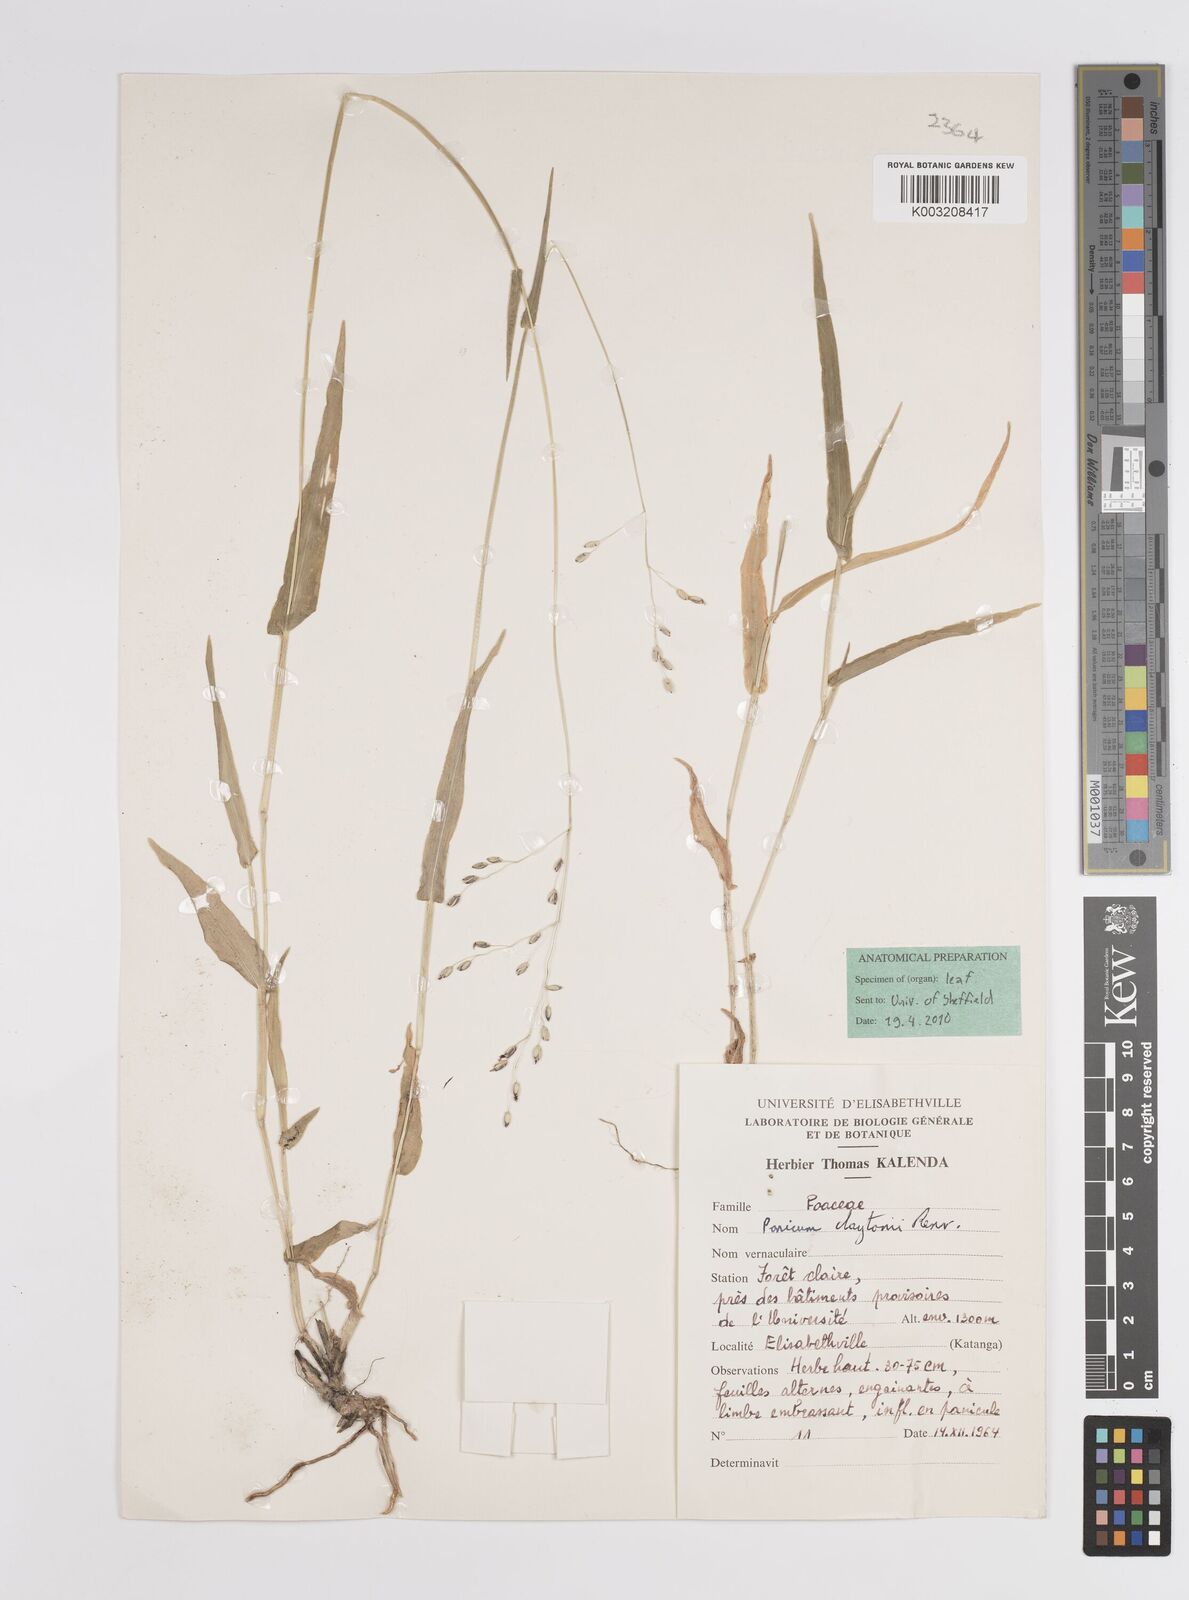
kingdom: Plantae
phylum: Tracheophyta
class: Liliopsida
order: Poales
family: Poaceae
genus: Adenochloa
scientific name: Adenochloa claytonii
